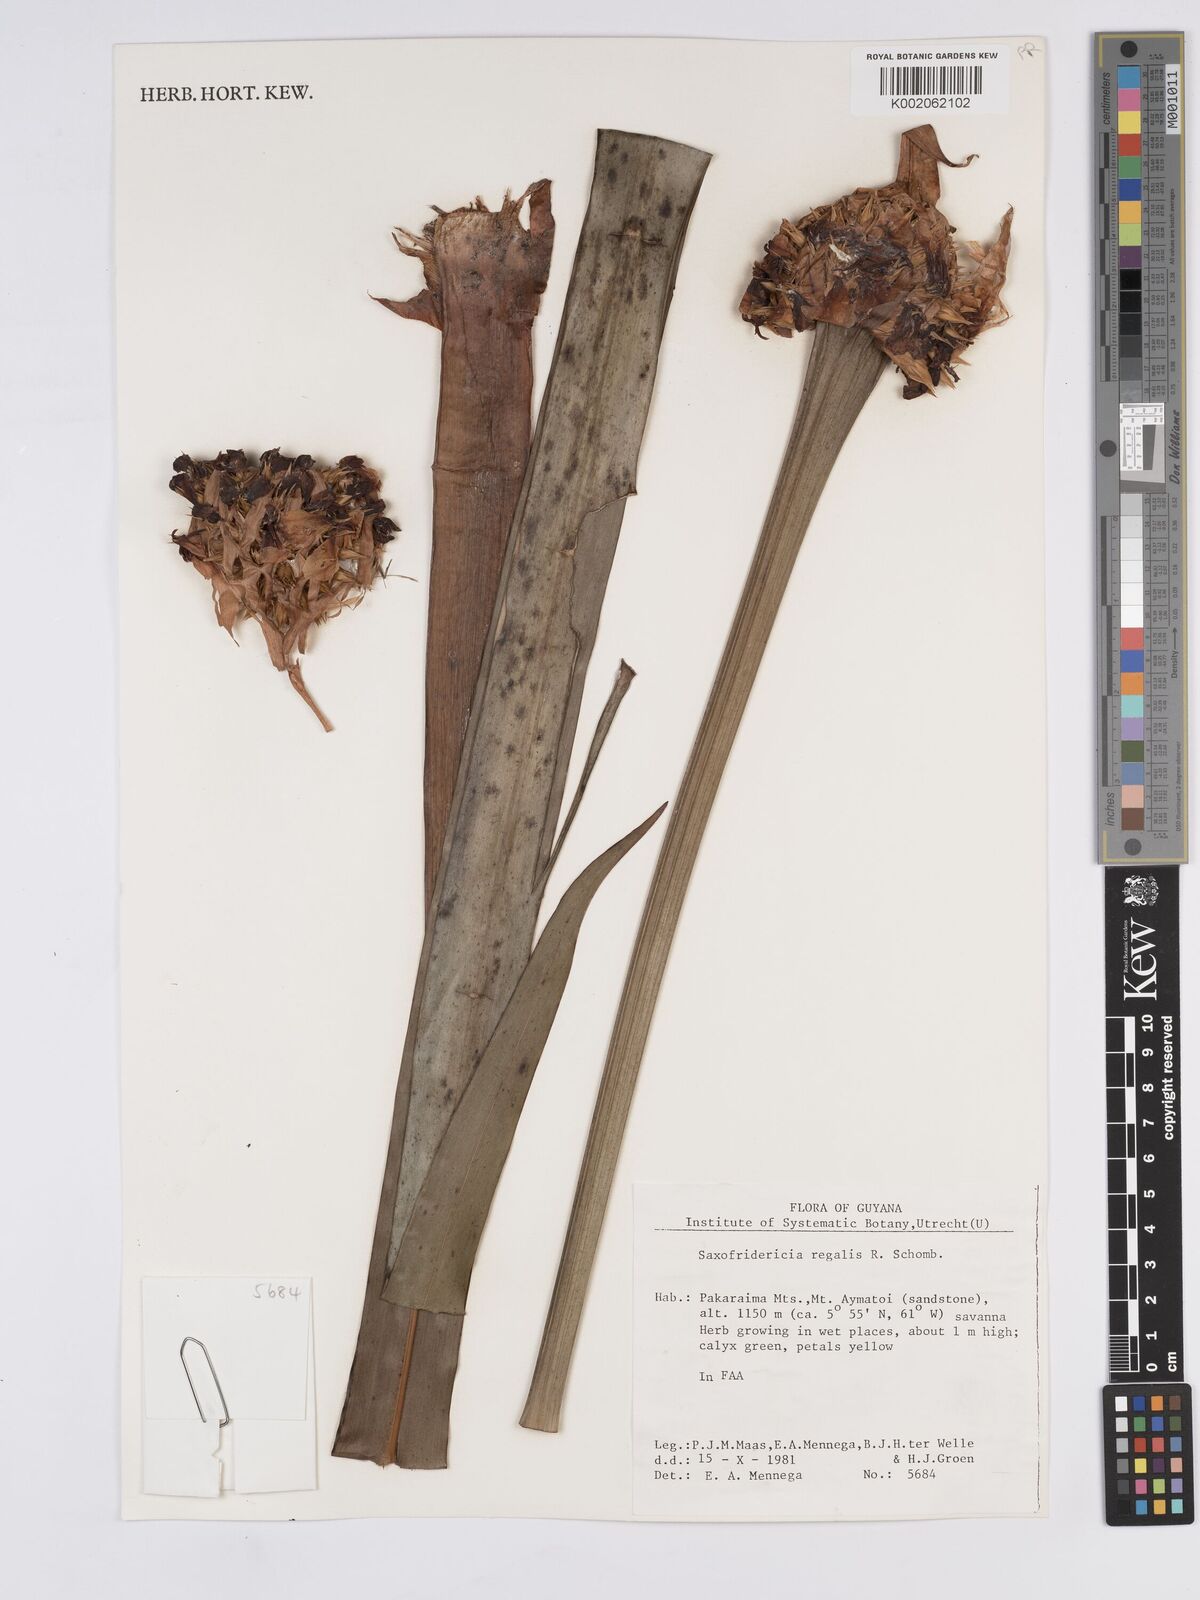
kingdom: Plantae
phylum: Tracheophyta
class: Liliopsida
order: Poales
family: Rapateaceae
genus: Saxofridericia
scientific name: Saxofridericia regalis
